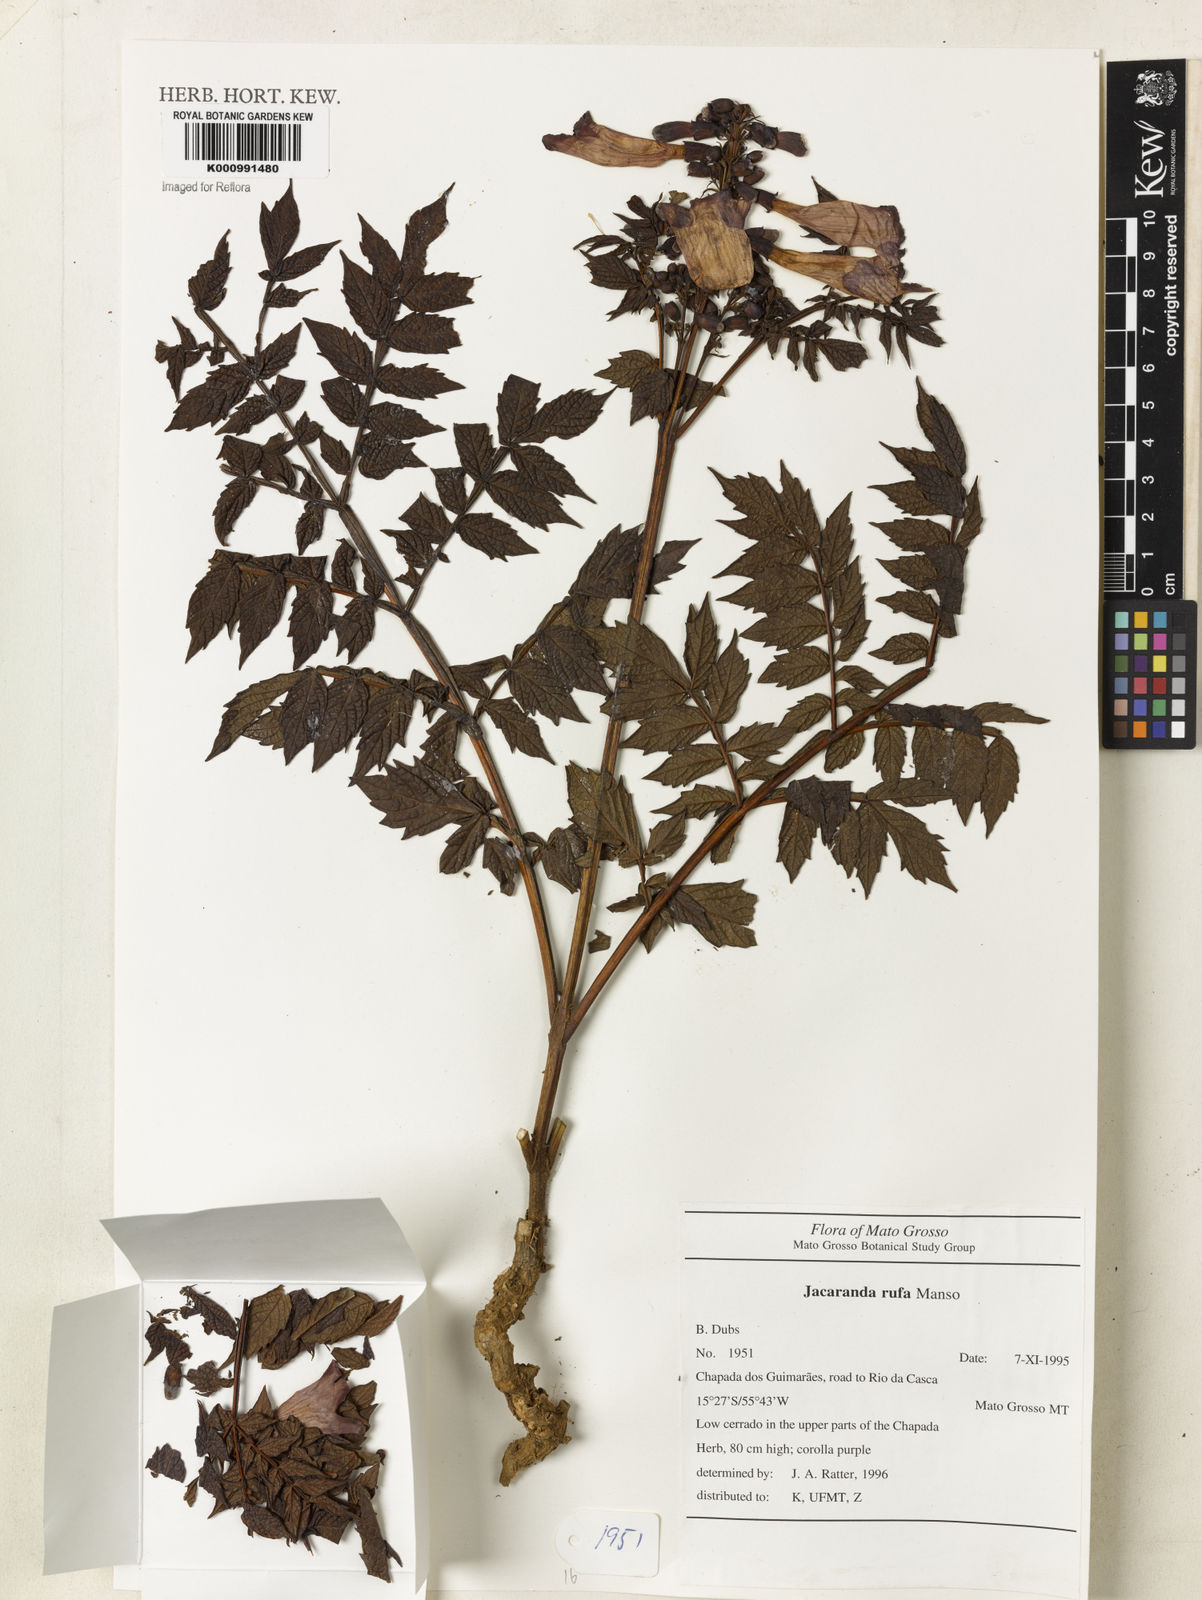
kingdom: Plantae
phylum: Tracheophyta
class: Magnoliopsida
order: Lamiales
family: Bignoniaceae
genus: Jacaranda
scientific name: Jacaranda rufa
